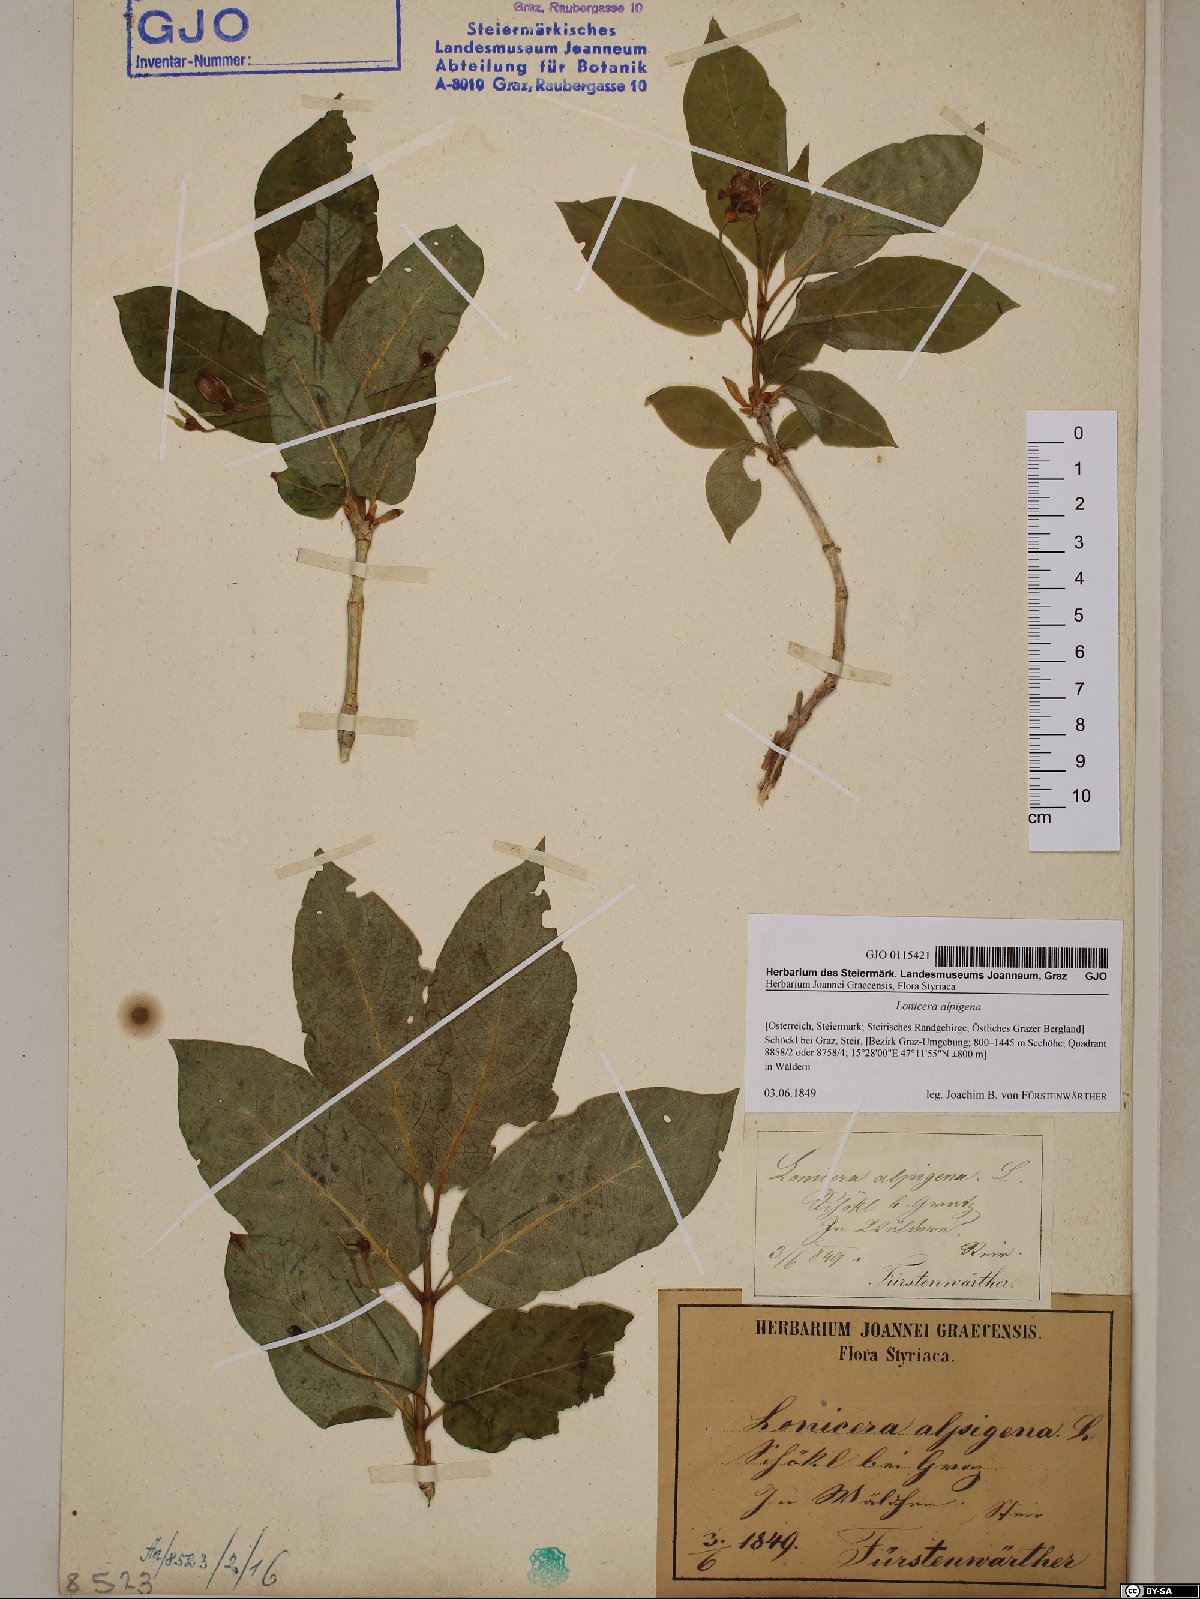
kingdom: Plantae
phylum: Tracheophyta
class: Magnoliopsida
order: Dipsacales
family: Caprifoliaceae
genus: Lonicera
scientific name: Lonicera alpigena
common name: Alpine honeysuckle
